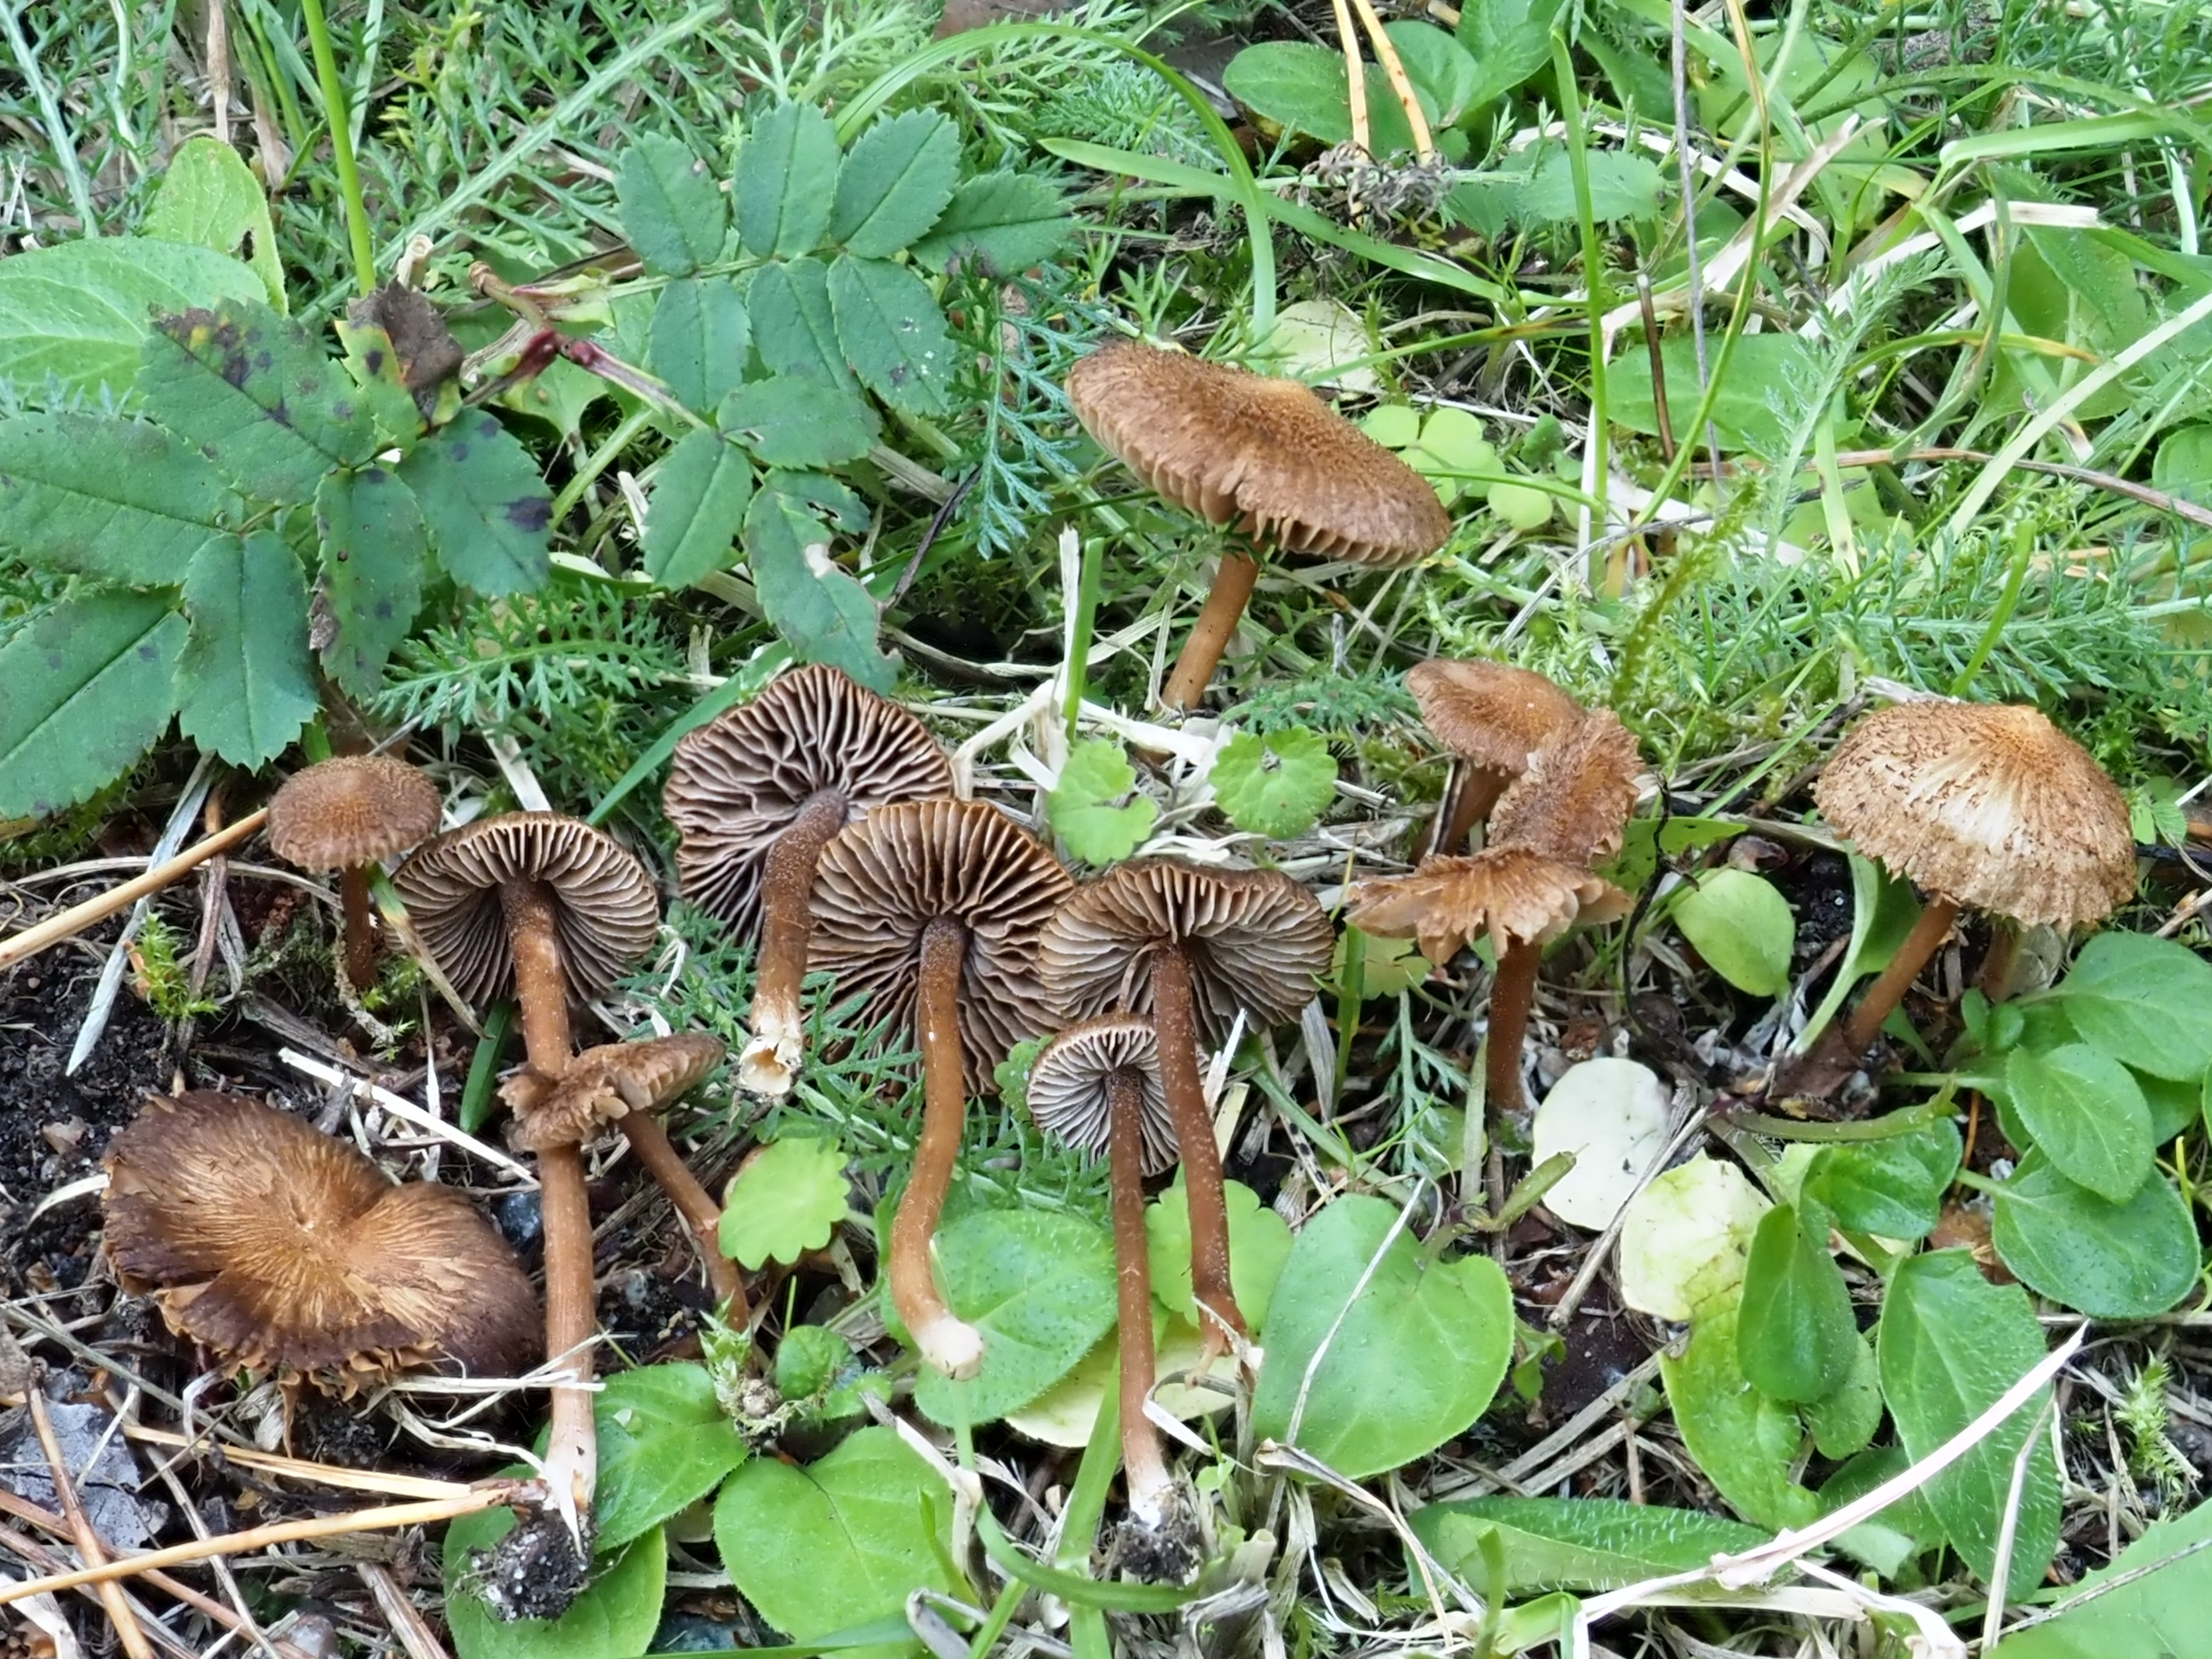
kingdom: Fungi
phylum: Basidiomycota
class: Agaricomycetes
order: Agaricales
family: Inocybaceae
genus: Inocybe
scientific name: Inocybe calospora
